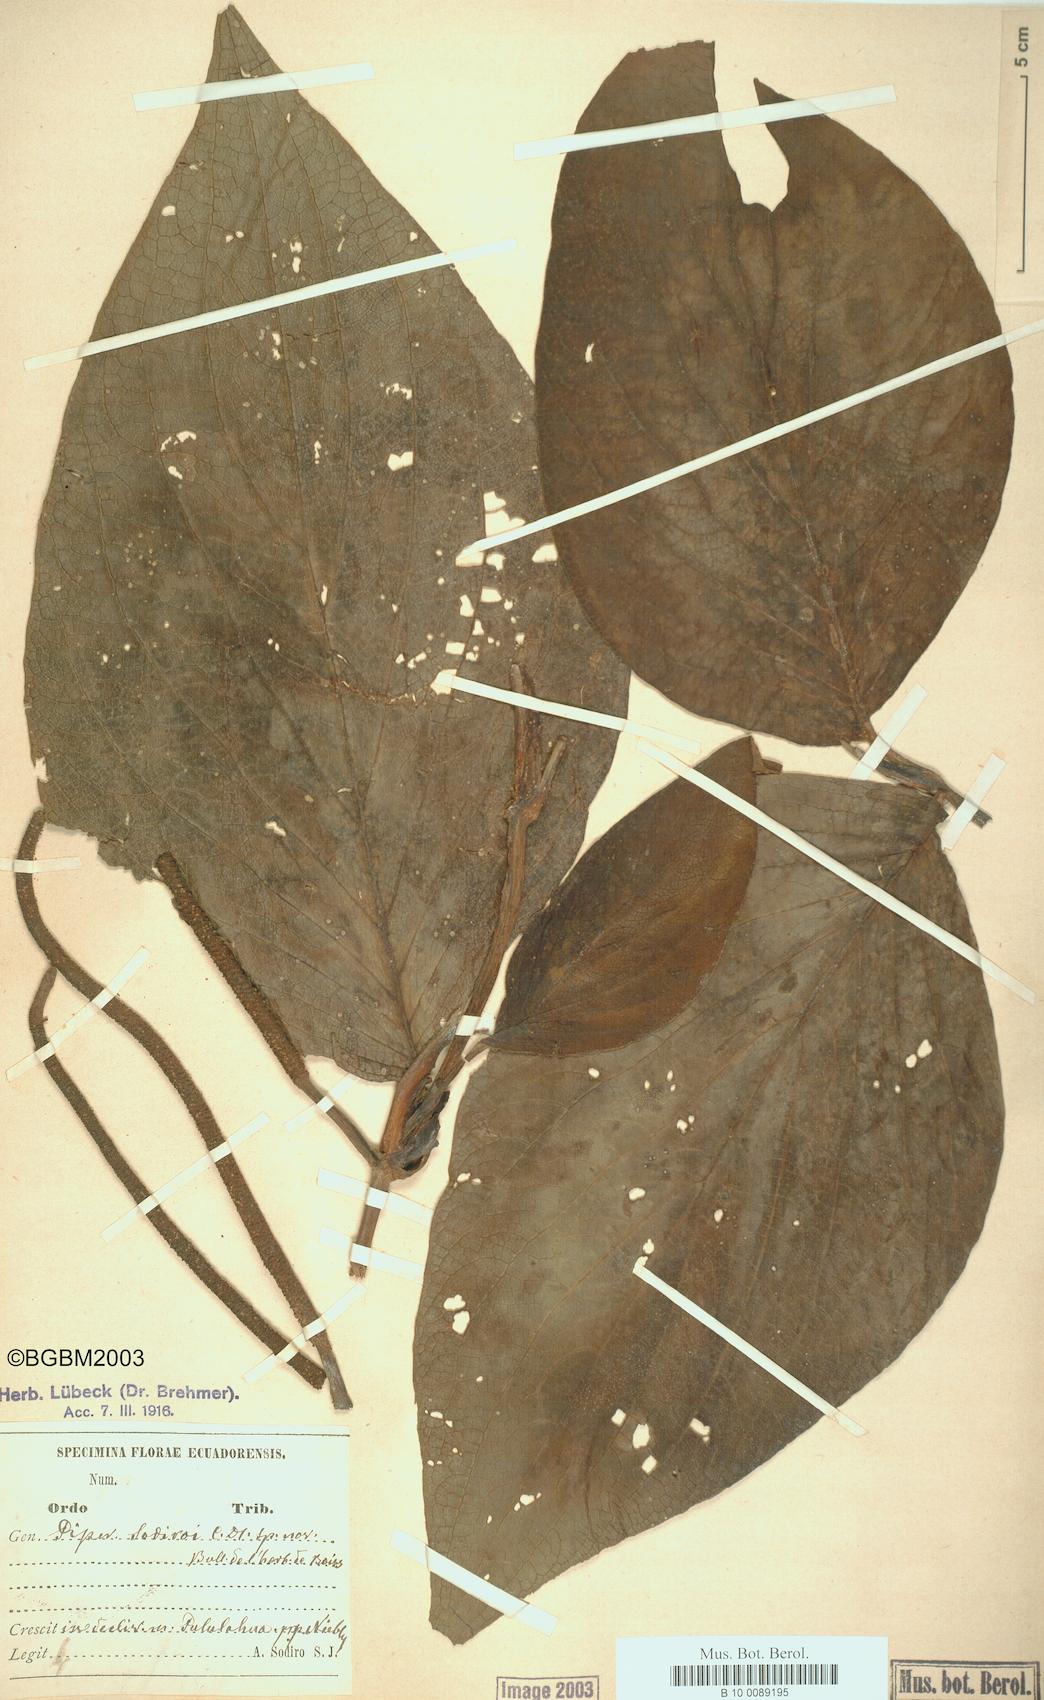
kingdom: Plantae
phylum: Tracheophyta
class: Magnoliopsida
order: Piperales
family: Piperaceae
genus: Piper
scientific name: Piper sodiroi
